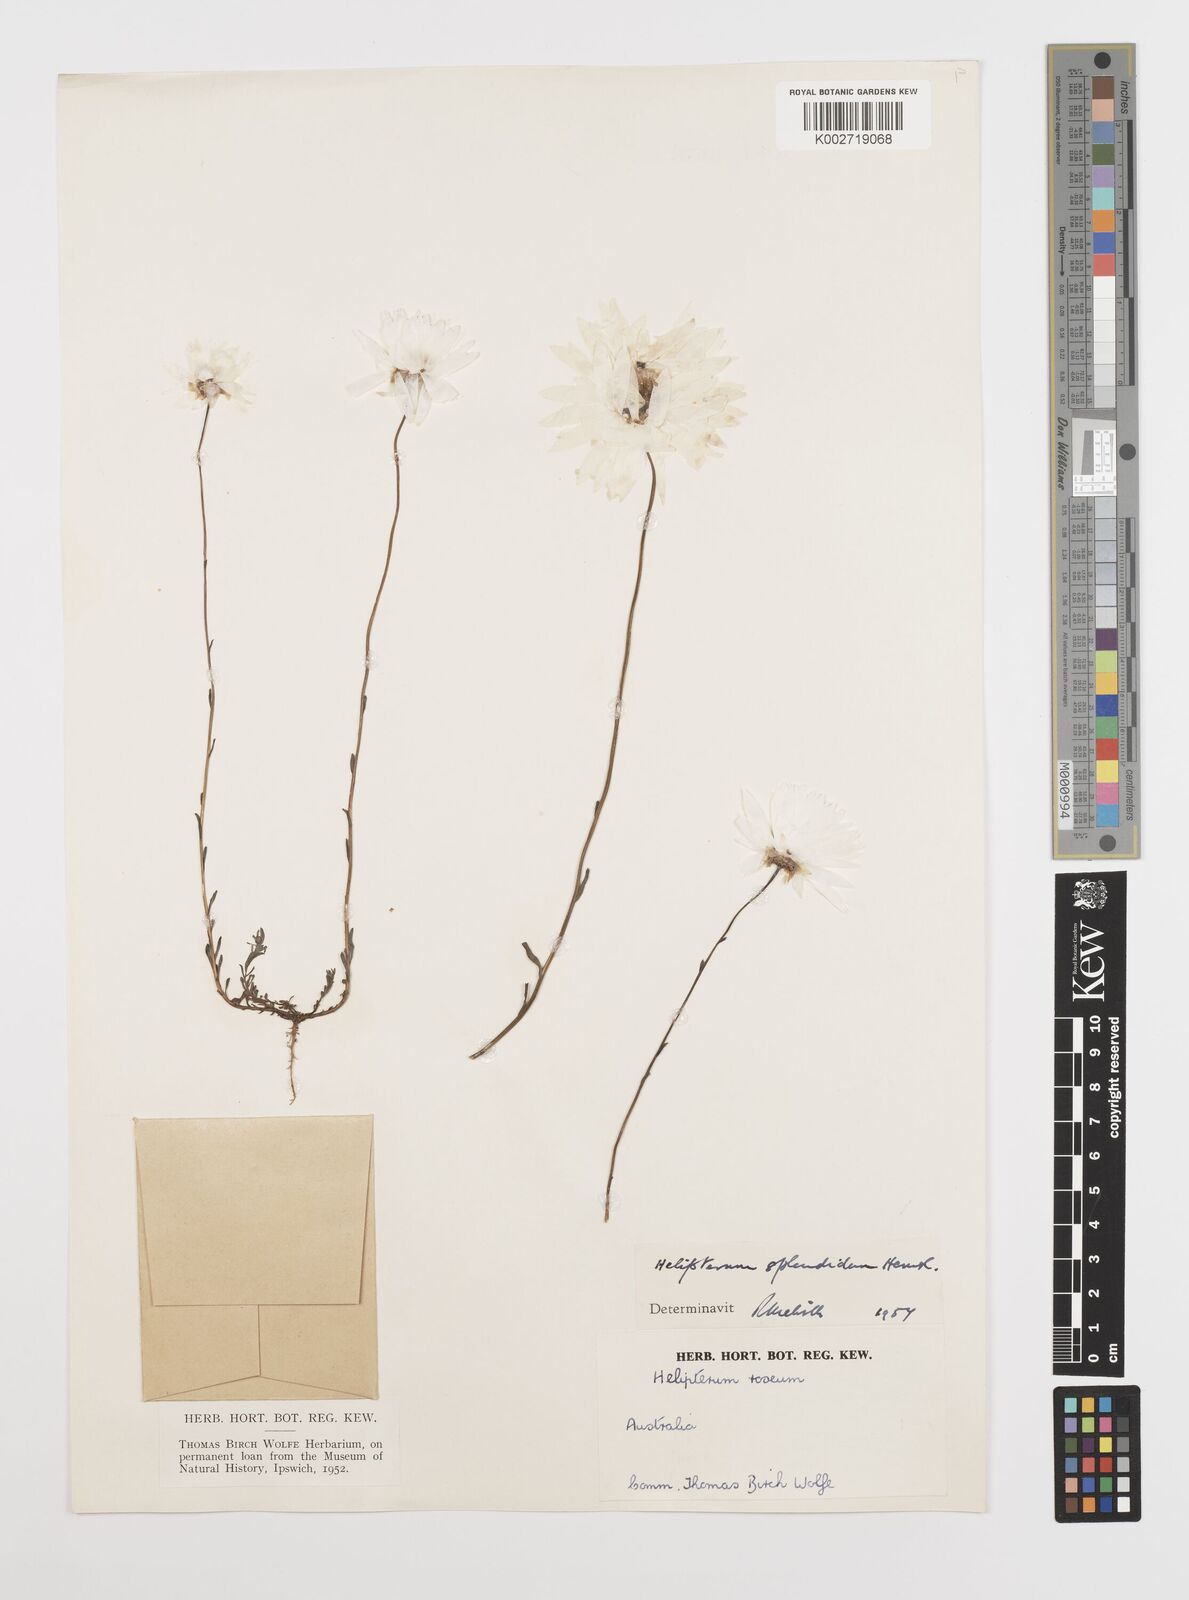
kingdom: Plantae
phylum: Tracheophyta
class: Magnoliopsida
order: Asterales
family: Asteraceae
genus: Rhodanthe
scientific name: Rhodanthe chlorocephala
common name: Rosy sunray
